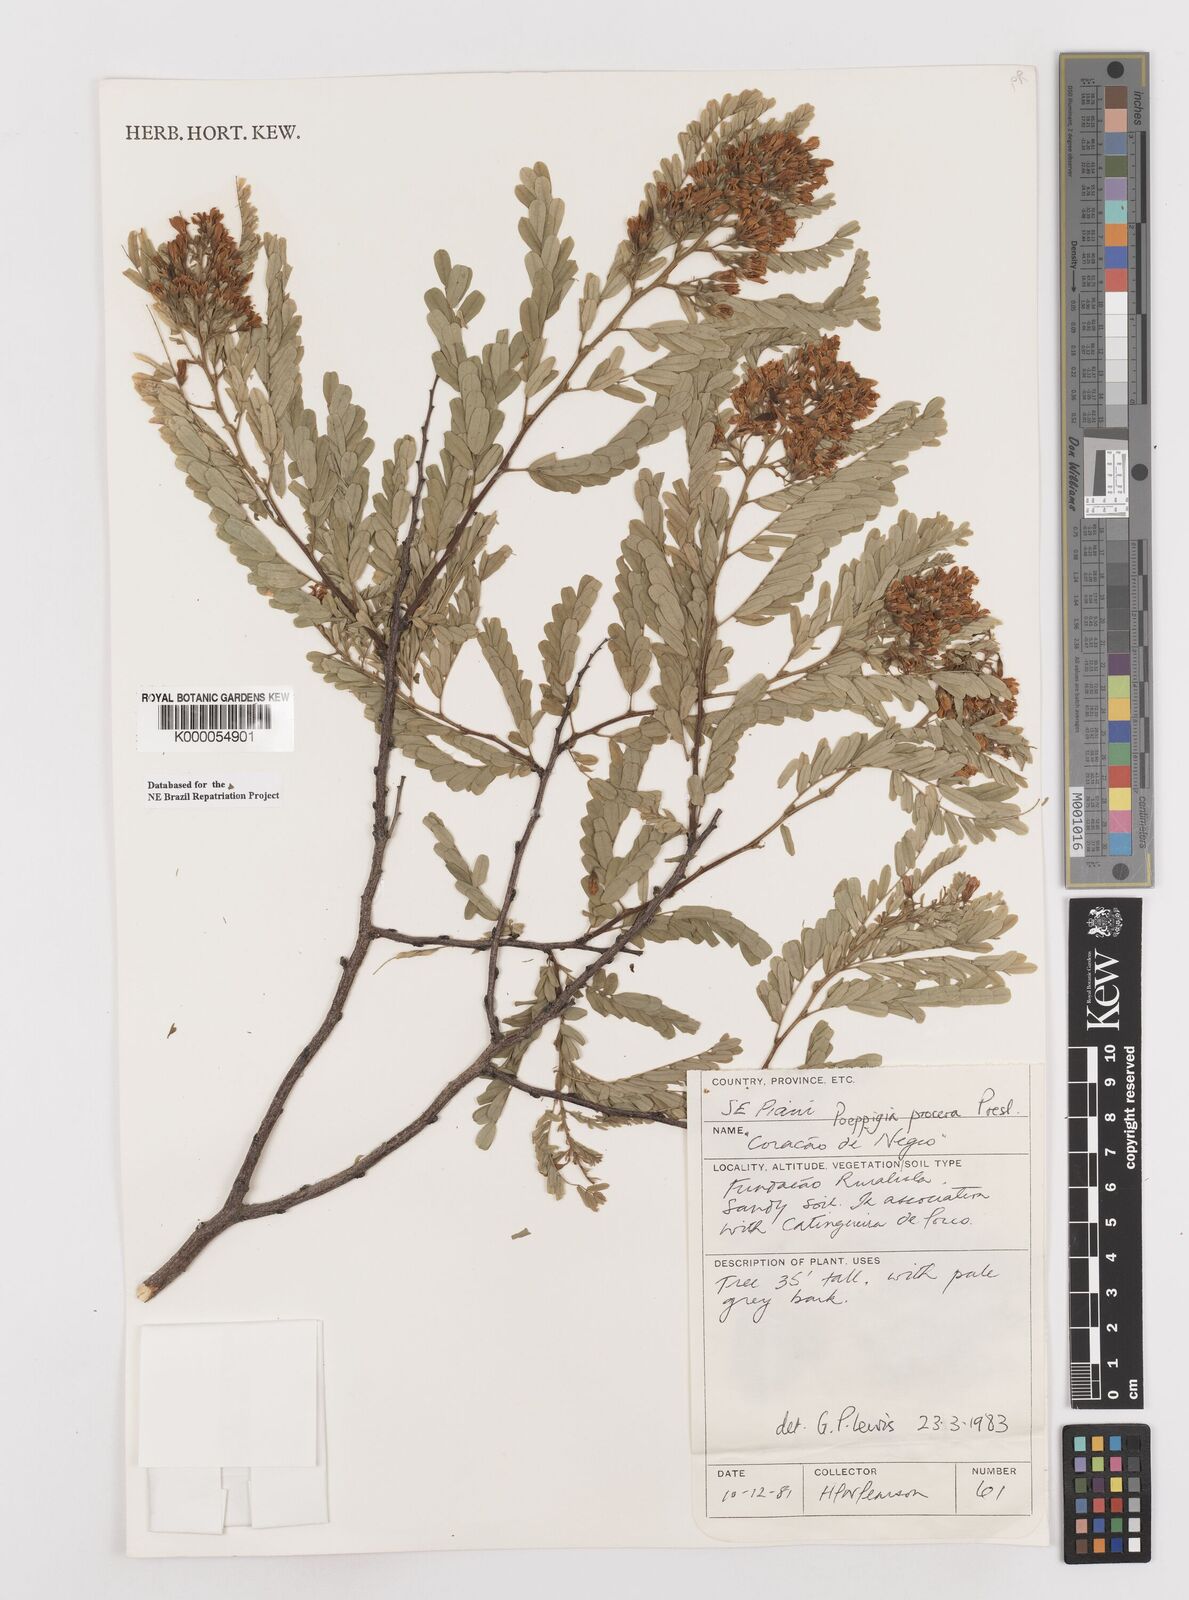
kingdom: Plantae
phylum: Tracheophyta
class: Magnoliopsida
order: Fabales
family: Fabaceae
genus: Poeppigia
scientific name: Poeppigia procera
